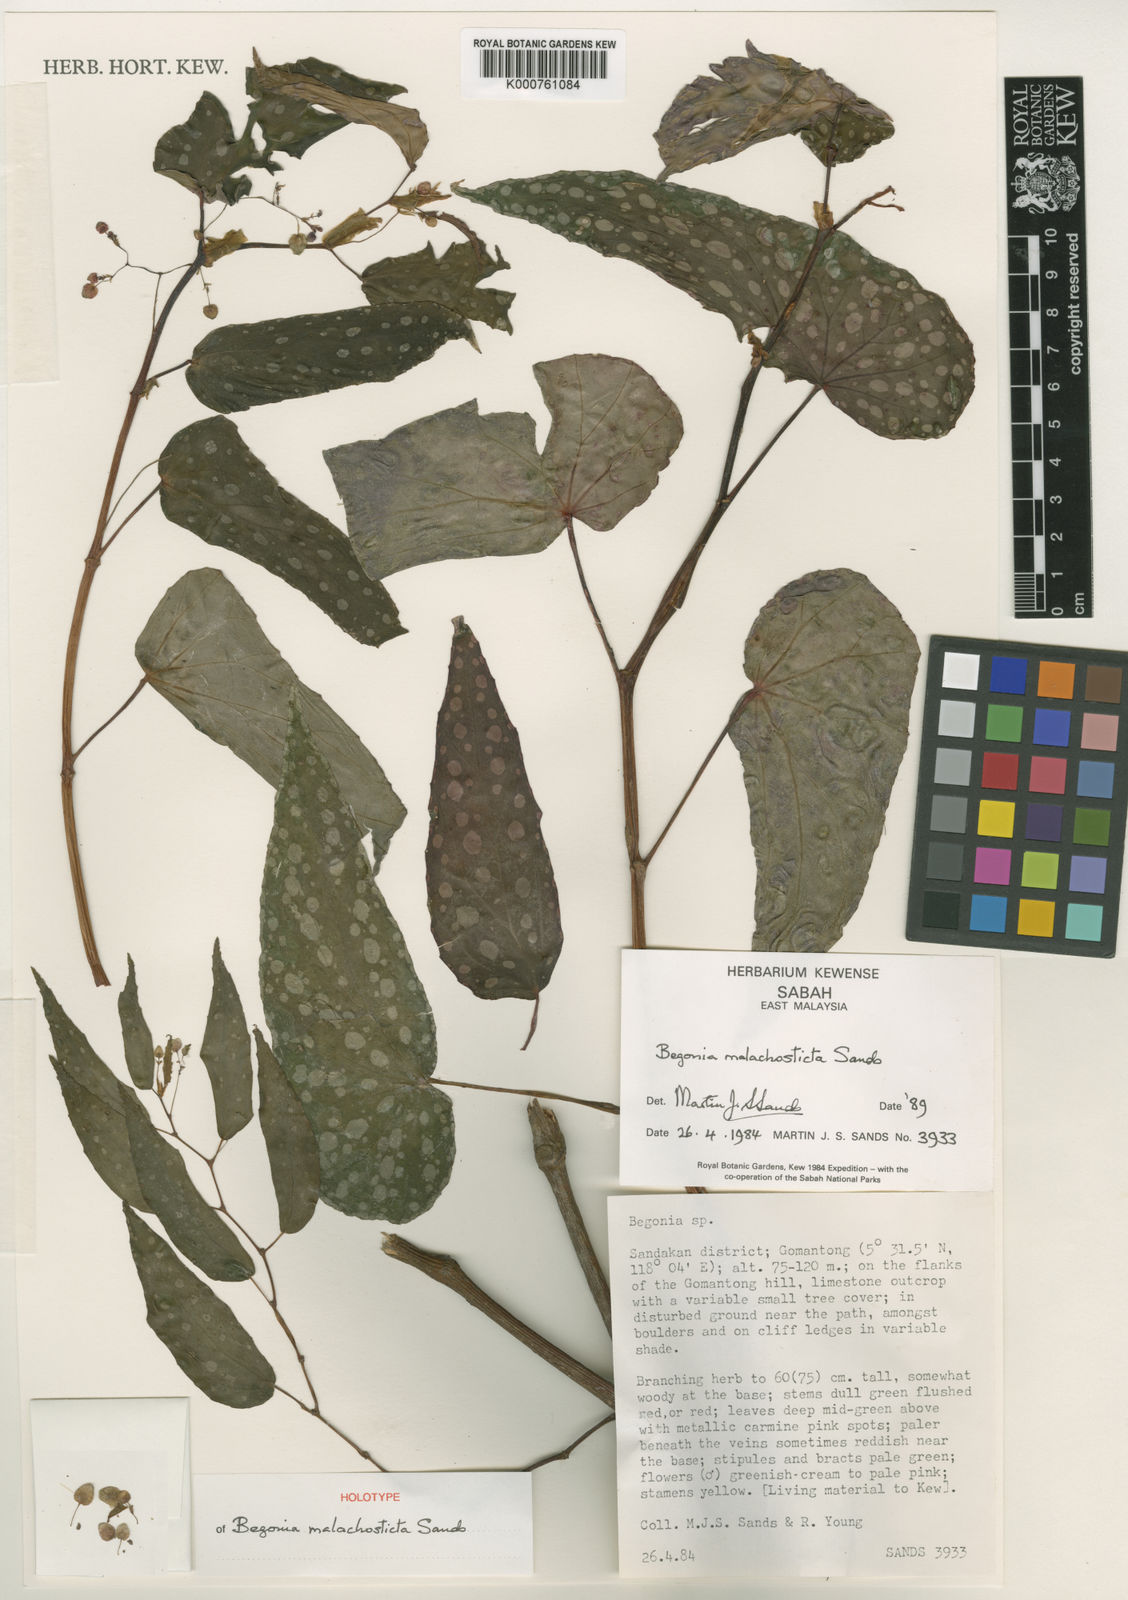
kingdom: Plantae
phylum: Tracheophyta
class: Magnoliopsida
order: Cucurbitales
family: Begoniaceae
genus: Begonia
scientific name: Begonia malachosticta
